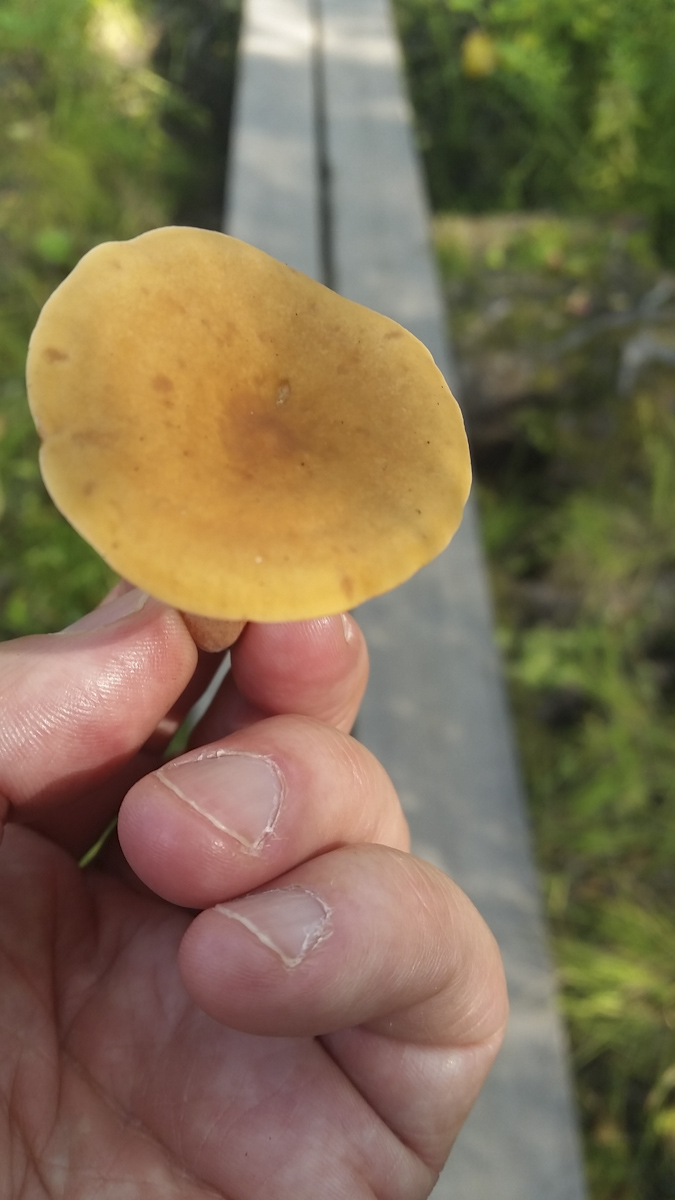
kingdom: Fungi
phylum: Basidiomycota
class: Agaricomycetes
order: Russulales
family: Russulaceae
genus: Lactarius
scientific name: Lactarius
